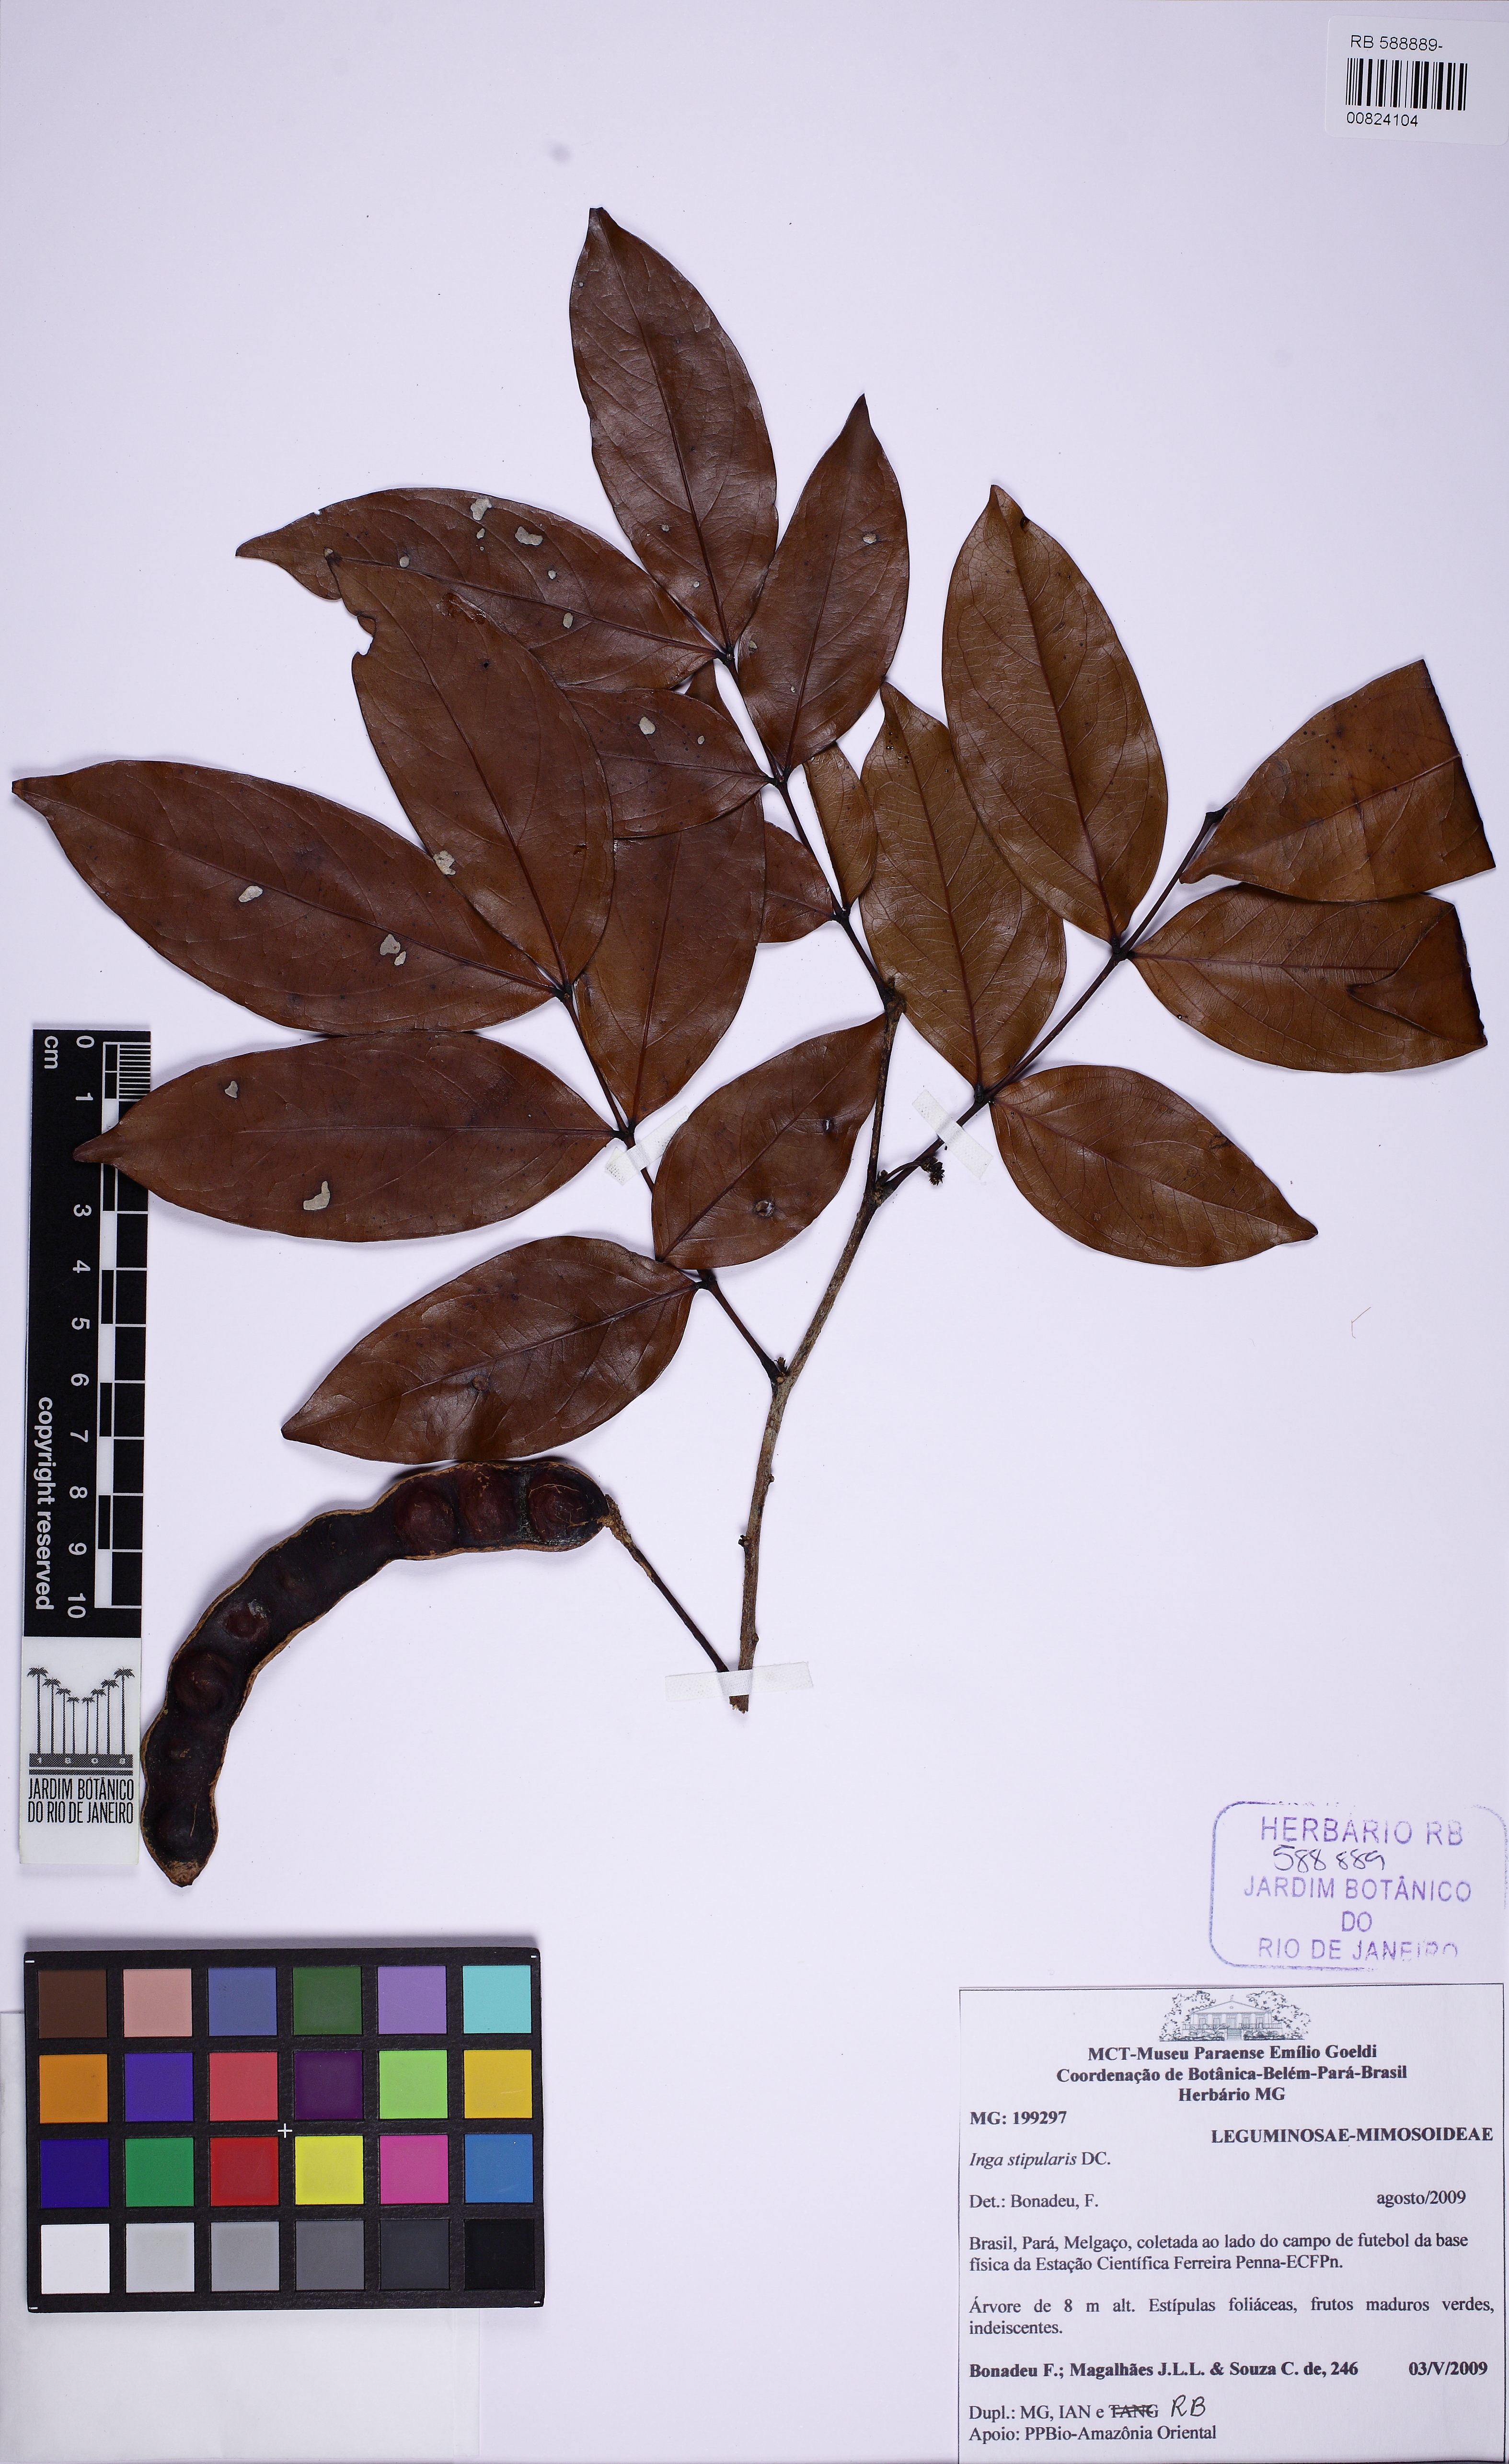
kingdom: Plantae
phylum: Tracheophyta
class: Magnoliopsida
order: Fabales
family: Fabaceae
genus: Inga
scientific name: Inga stipularis
